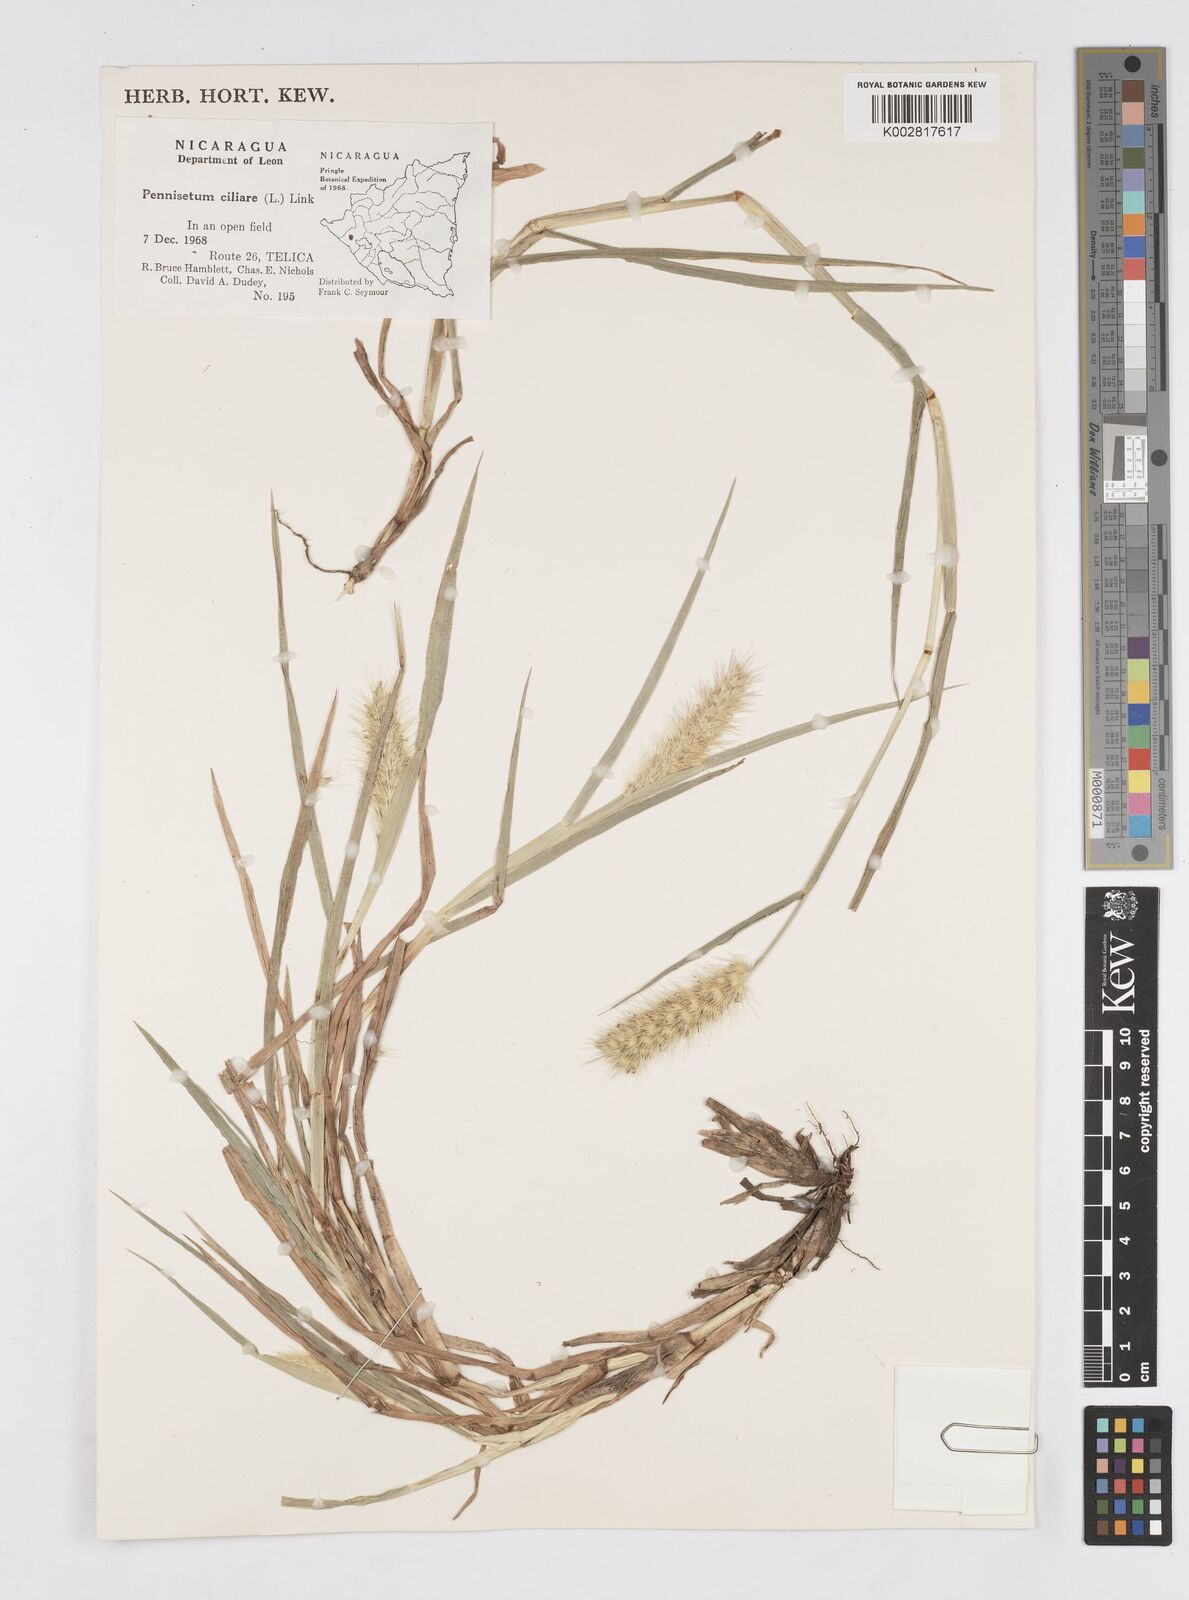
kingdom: Plantae
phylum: Tracheophyta
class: Liliopsida
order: Poales
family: Poaceae
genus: Cenchrus
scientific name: Cenchrus multiflorus
